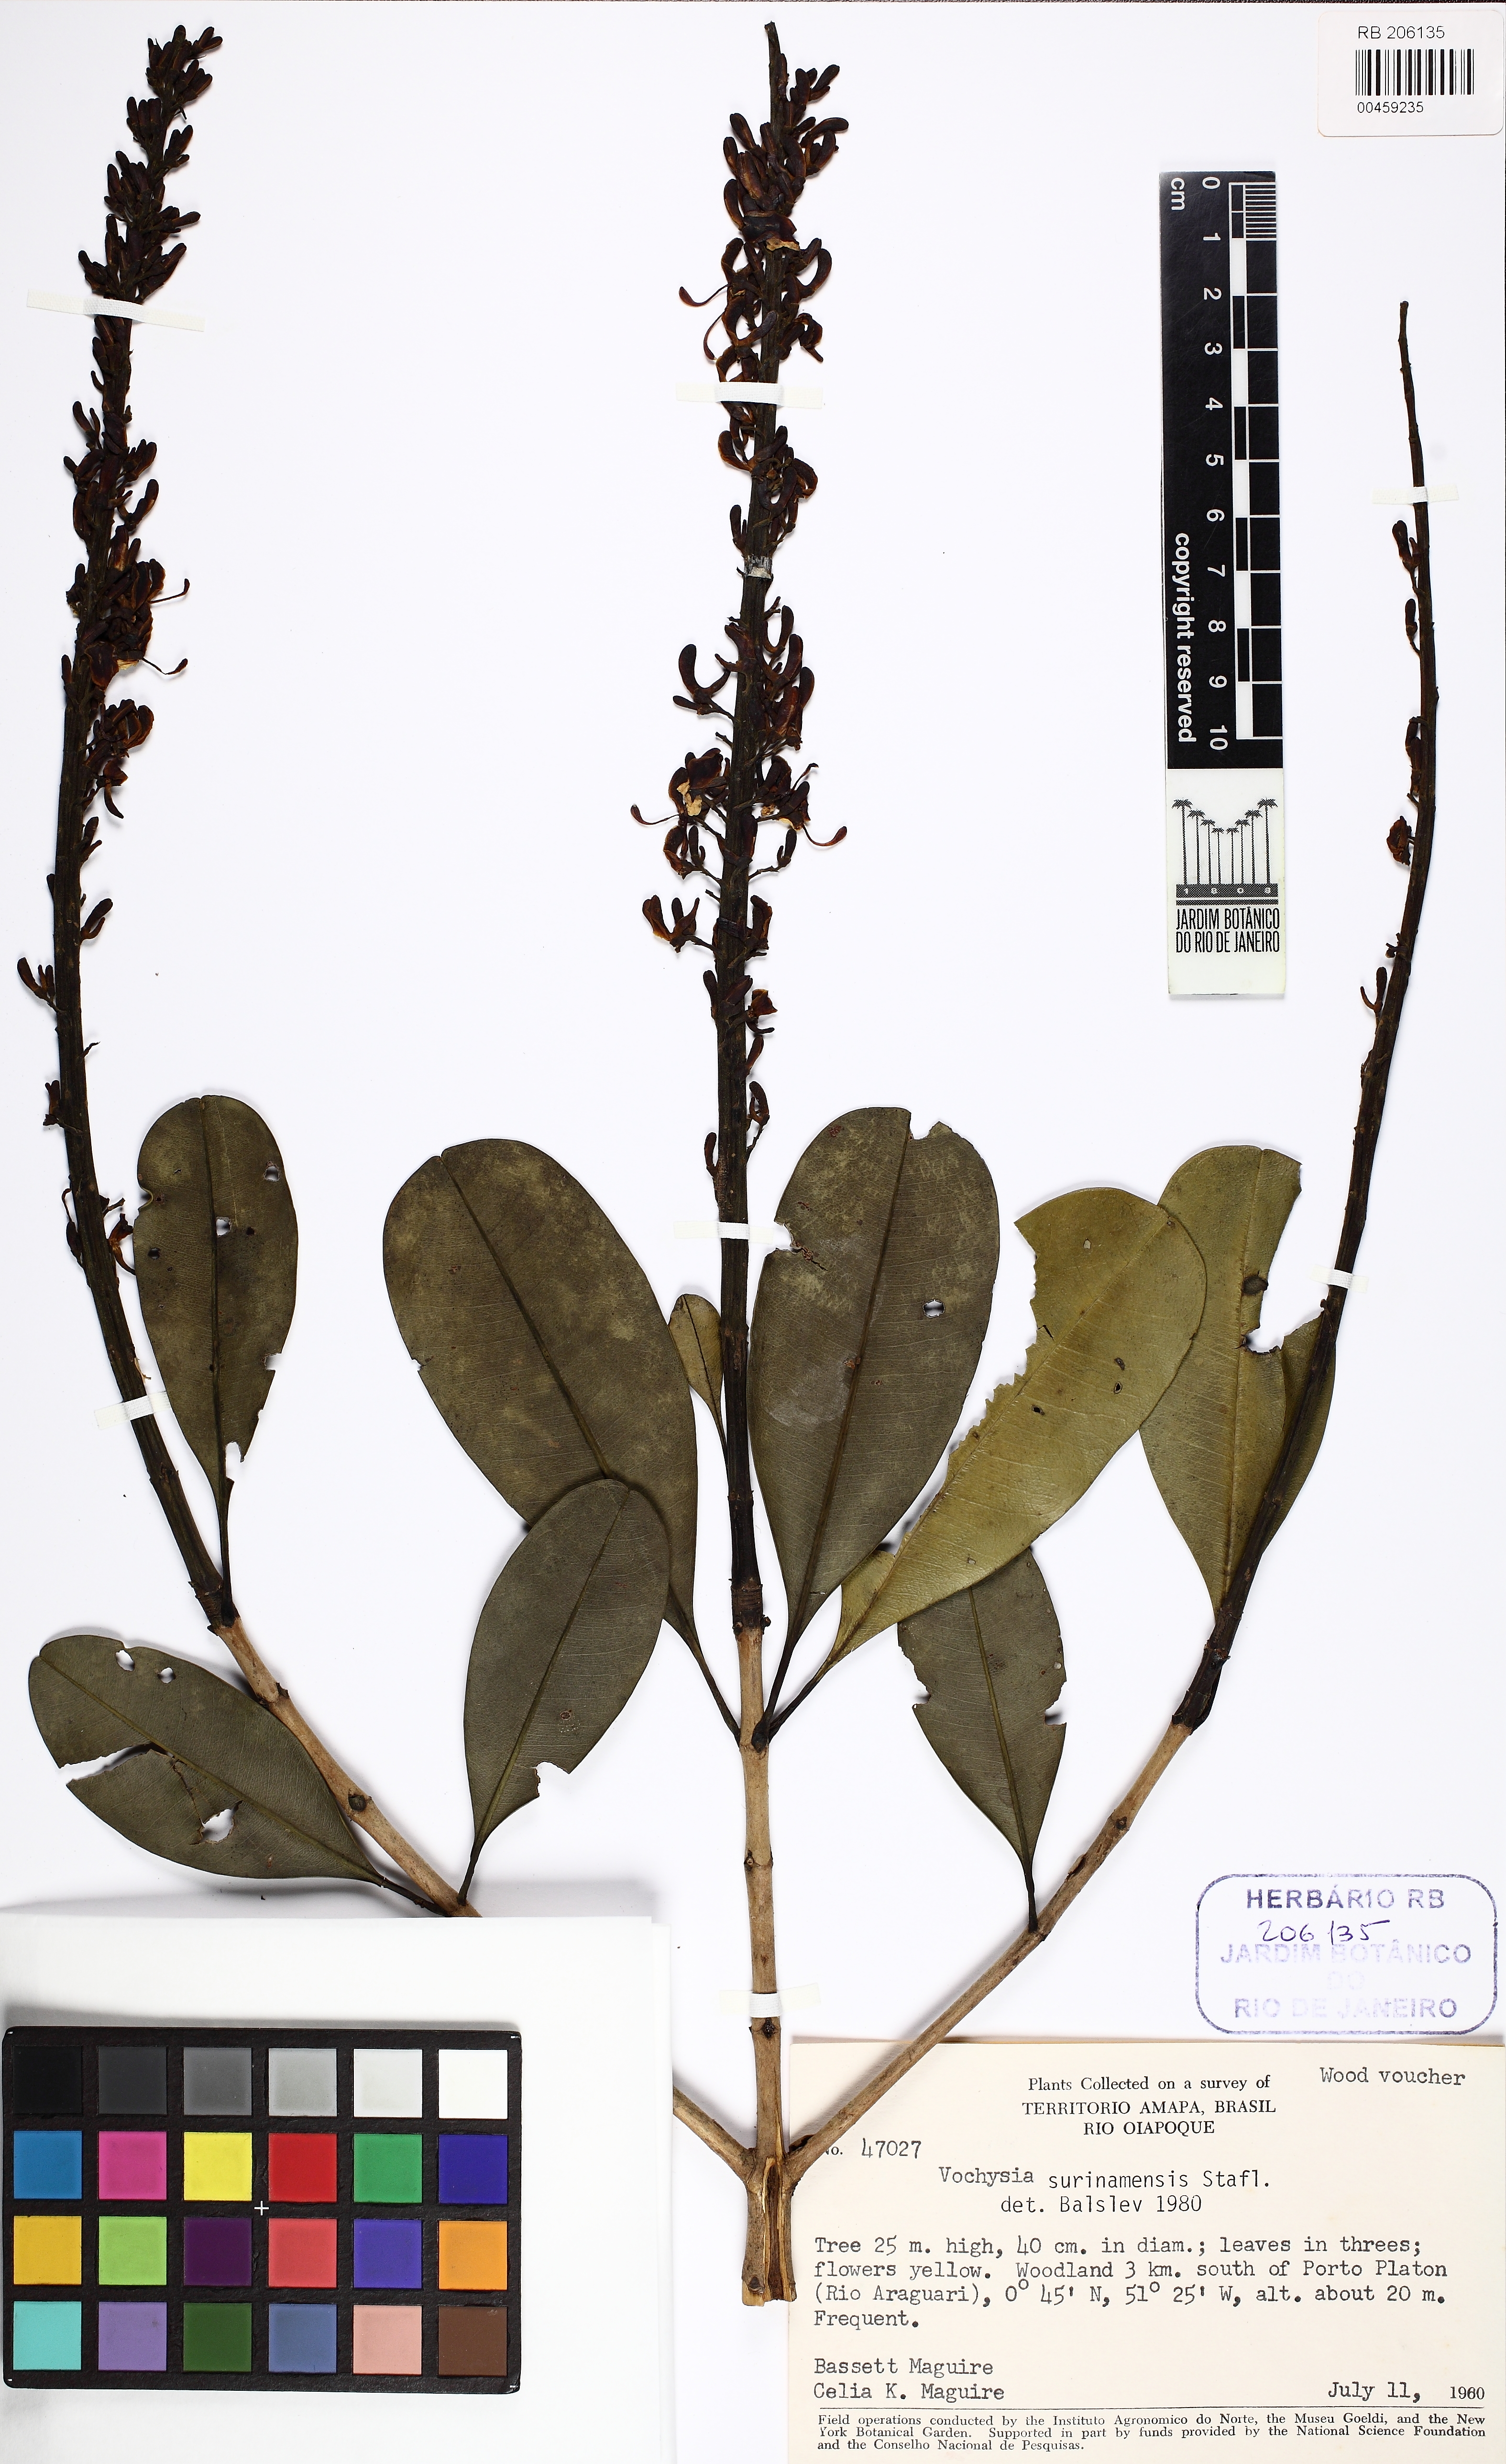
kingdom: Plantae
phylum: Tracheophyta
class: Magnoliopsida
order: Myrtales
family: Vochysiaceae
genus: Vochysia
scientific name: Vochysia surinamensis
